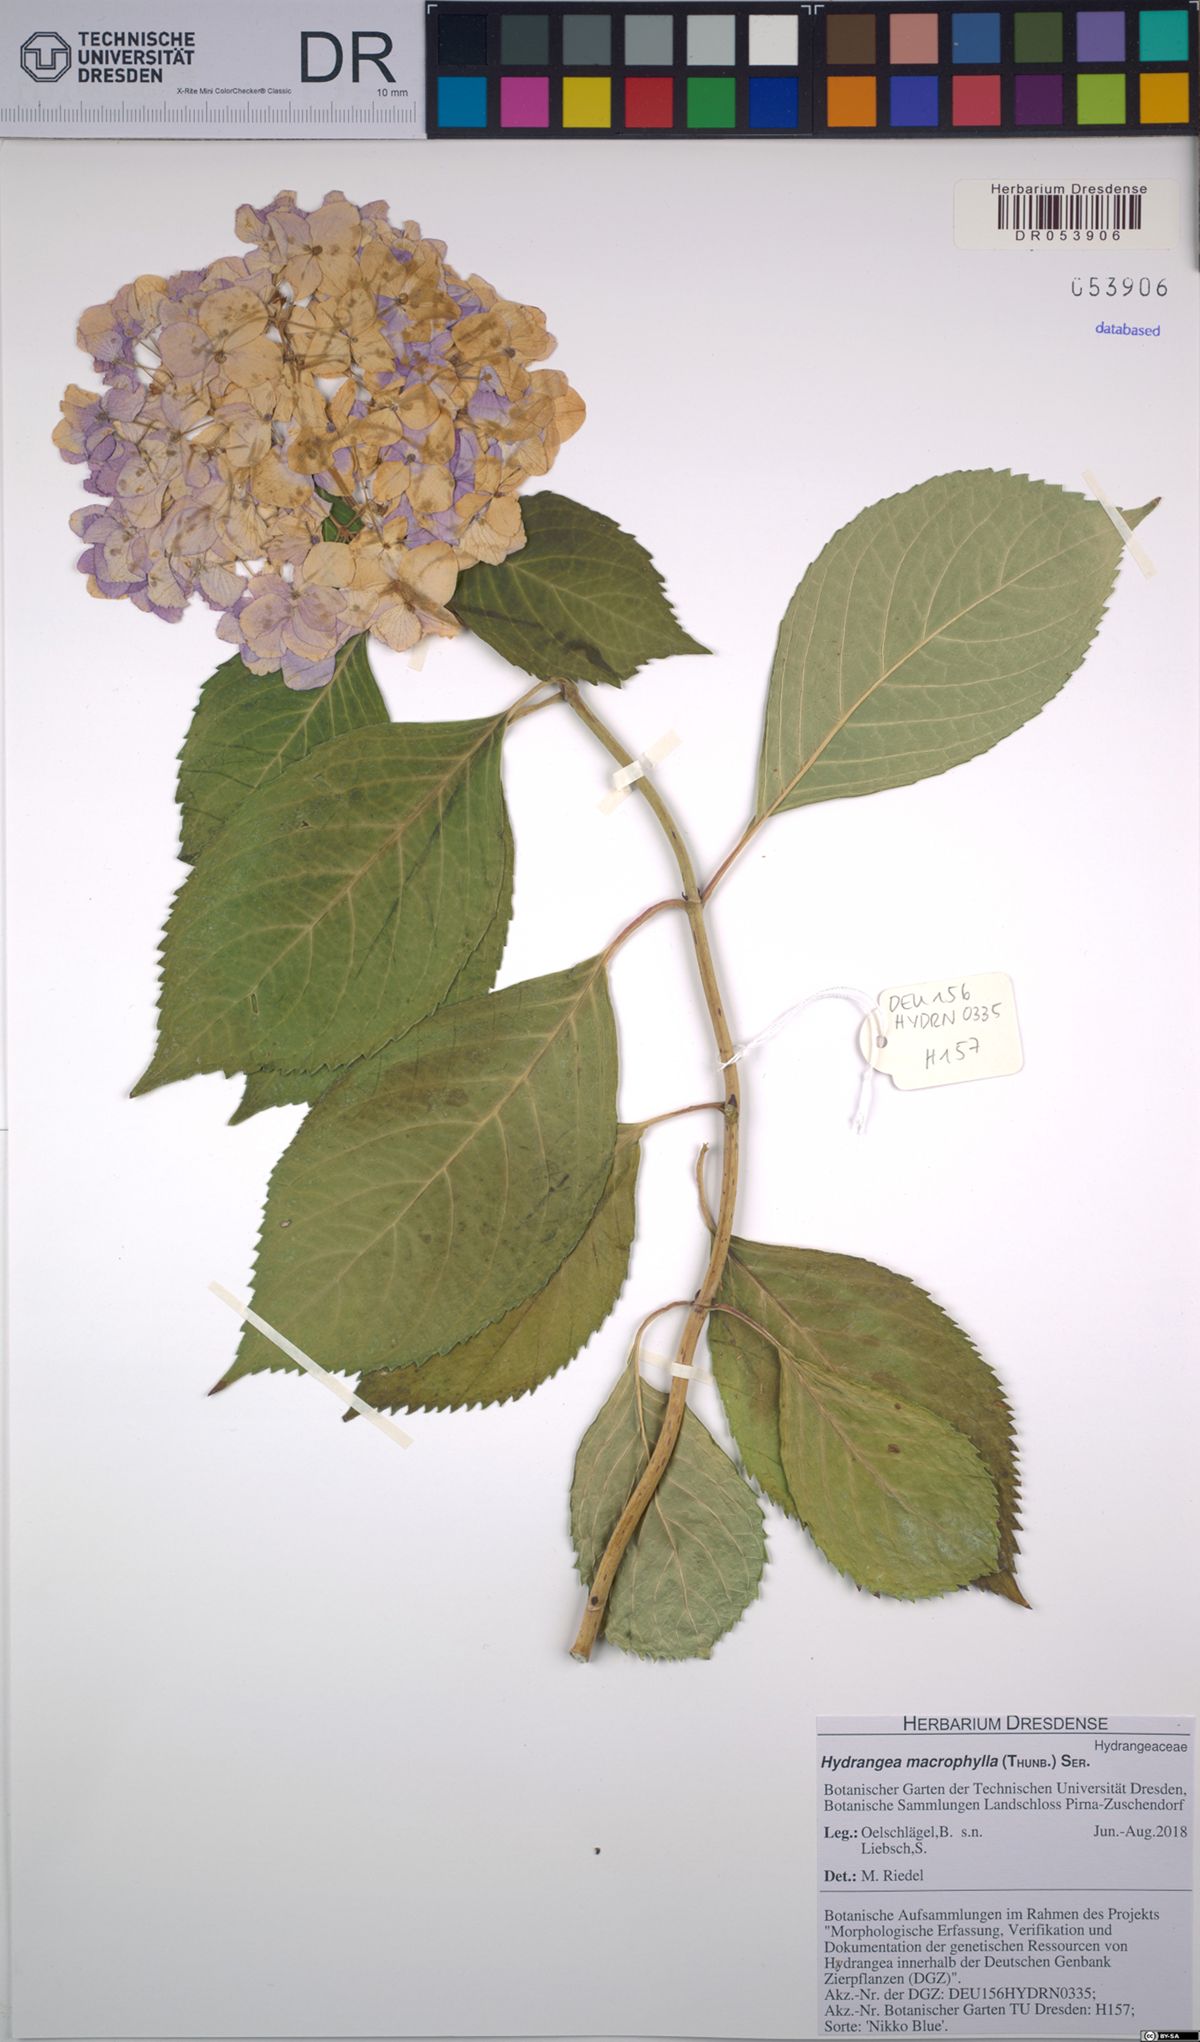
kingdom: Plantae
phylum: Tracheophyta
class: Magnoliopsida
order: Cornales
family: Hydrangeaceae
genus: Hydrangea
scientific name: Hydrangea macrophylla
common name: Hydrangea
